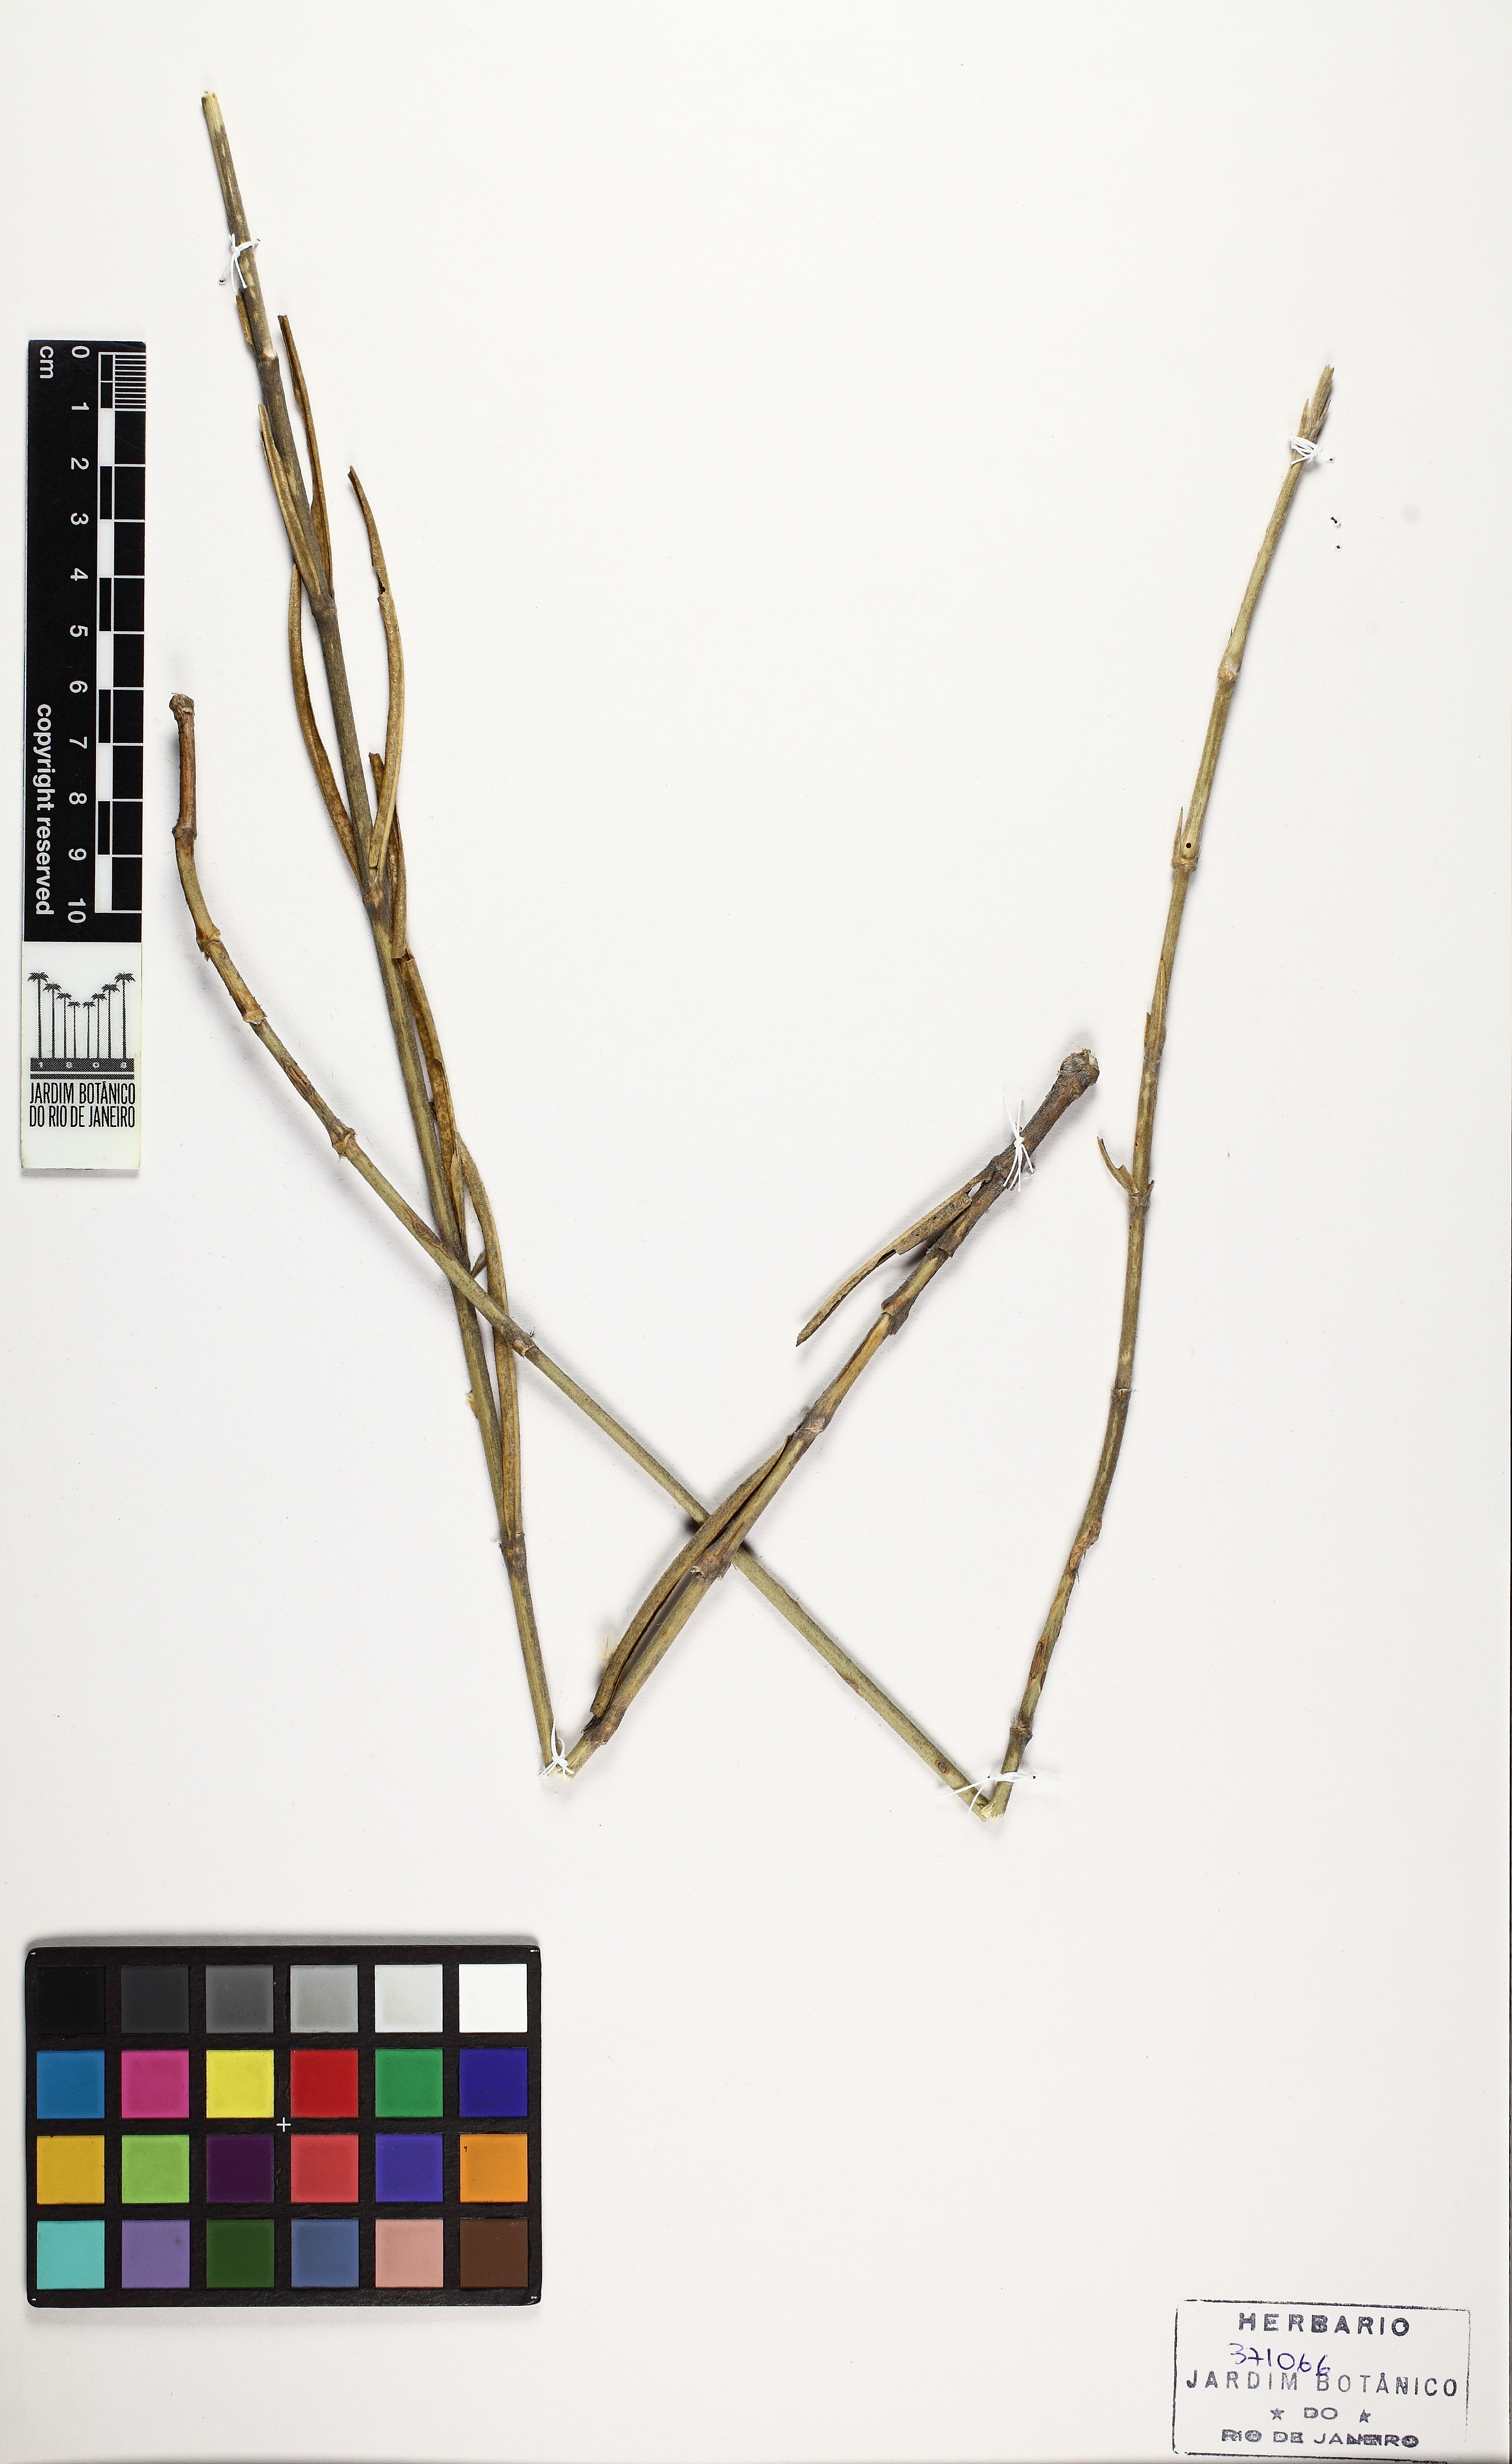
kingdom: Plantae
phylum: Tracheophyta
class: Magnoliopsida
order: Caryophyllales
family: Amaranthaceae
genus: Froelichia
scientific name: Froelichia
